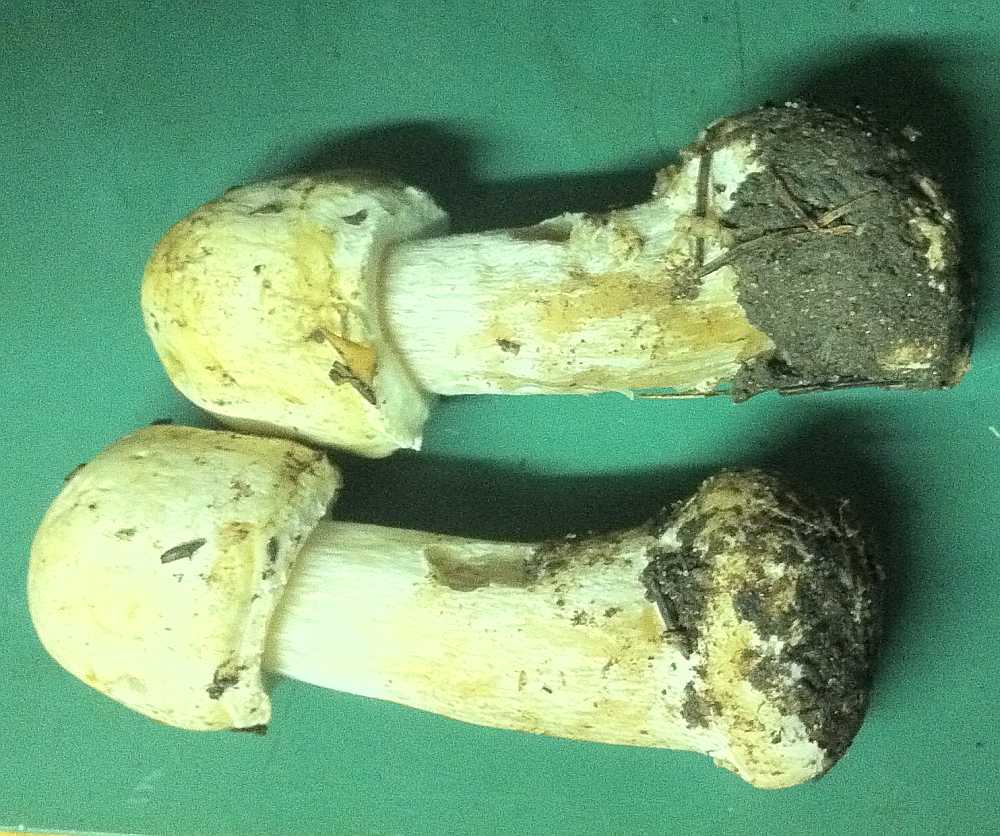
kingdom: Fungi
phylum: Basidiomycota
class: Agaricomycetes
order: Agaricales
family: Agaricaceae
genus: Agaricus
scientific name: Agaricus sylvicola
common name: gulhvid champignon
